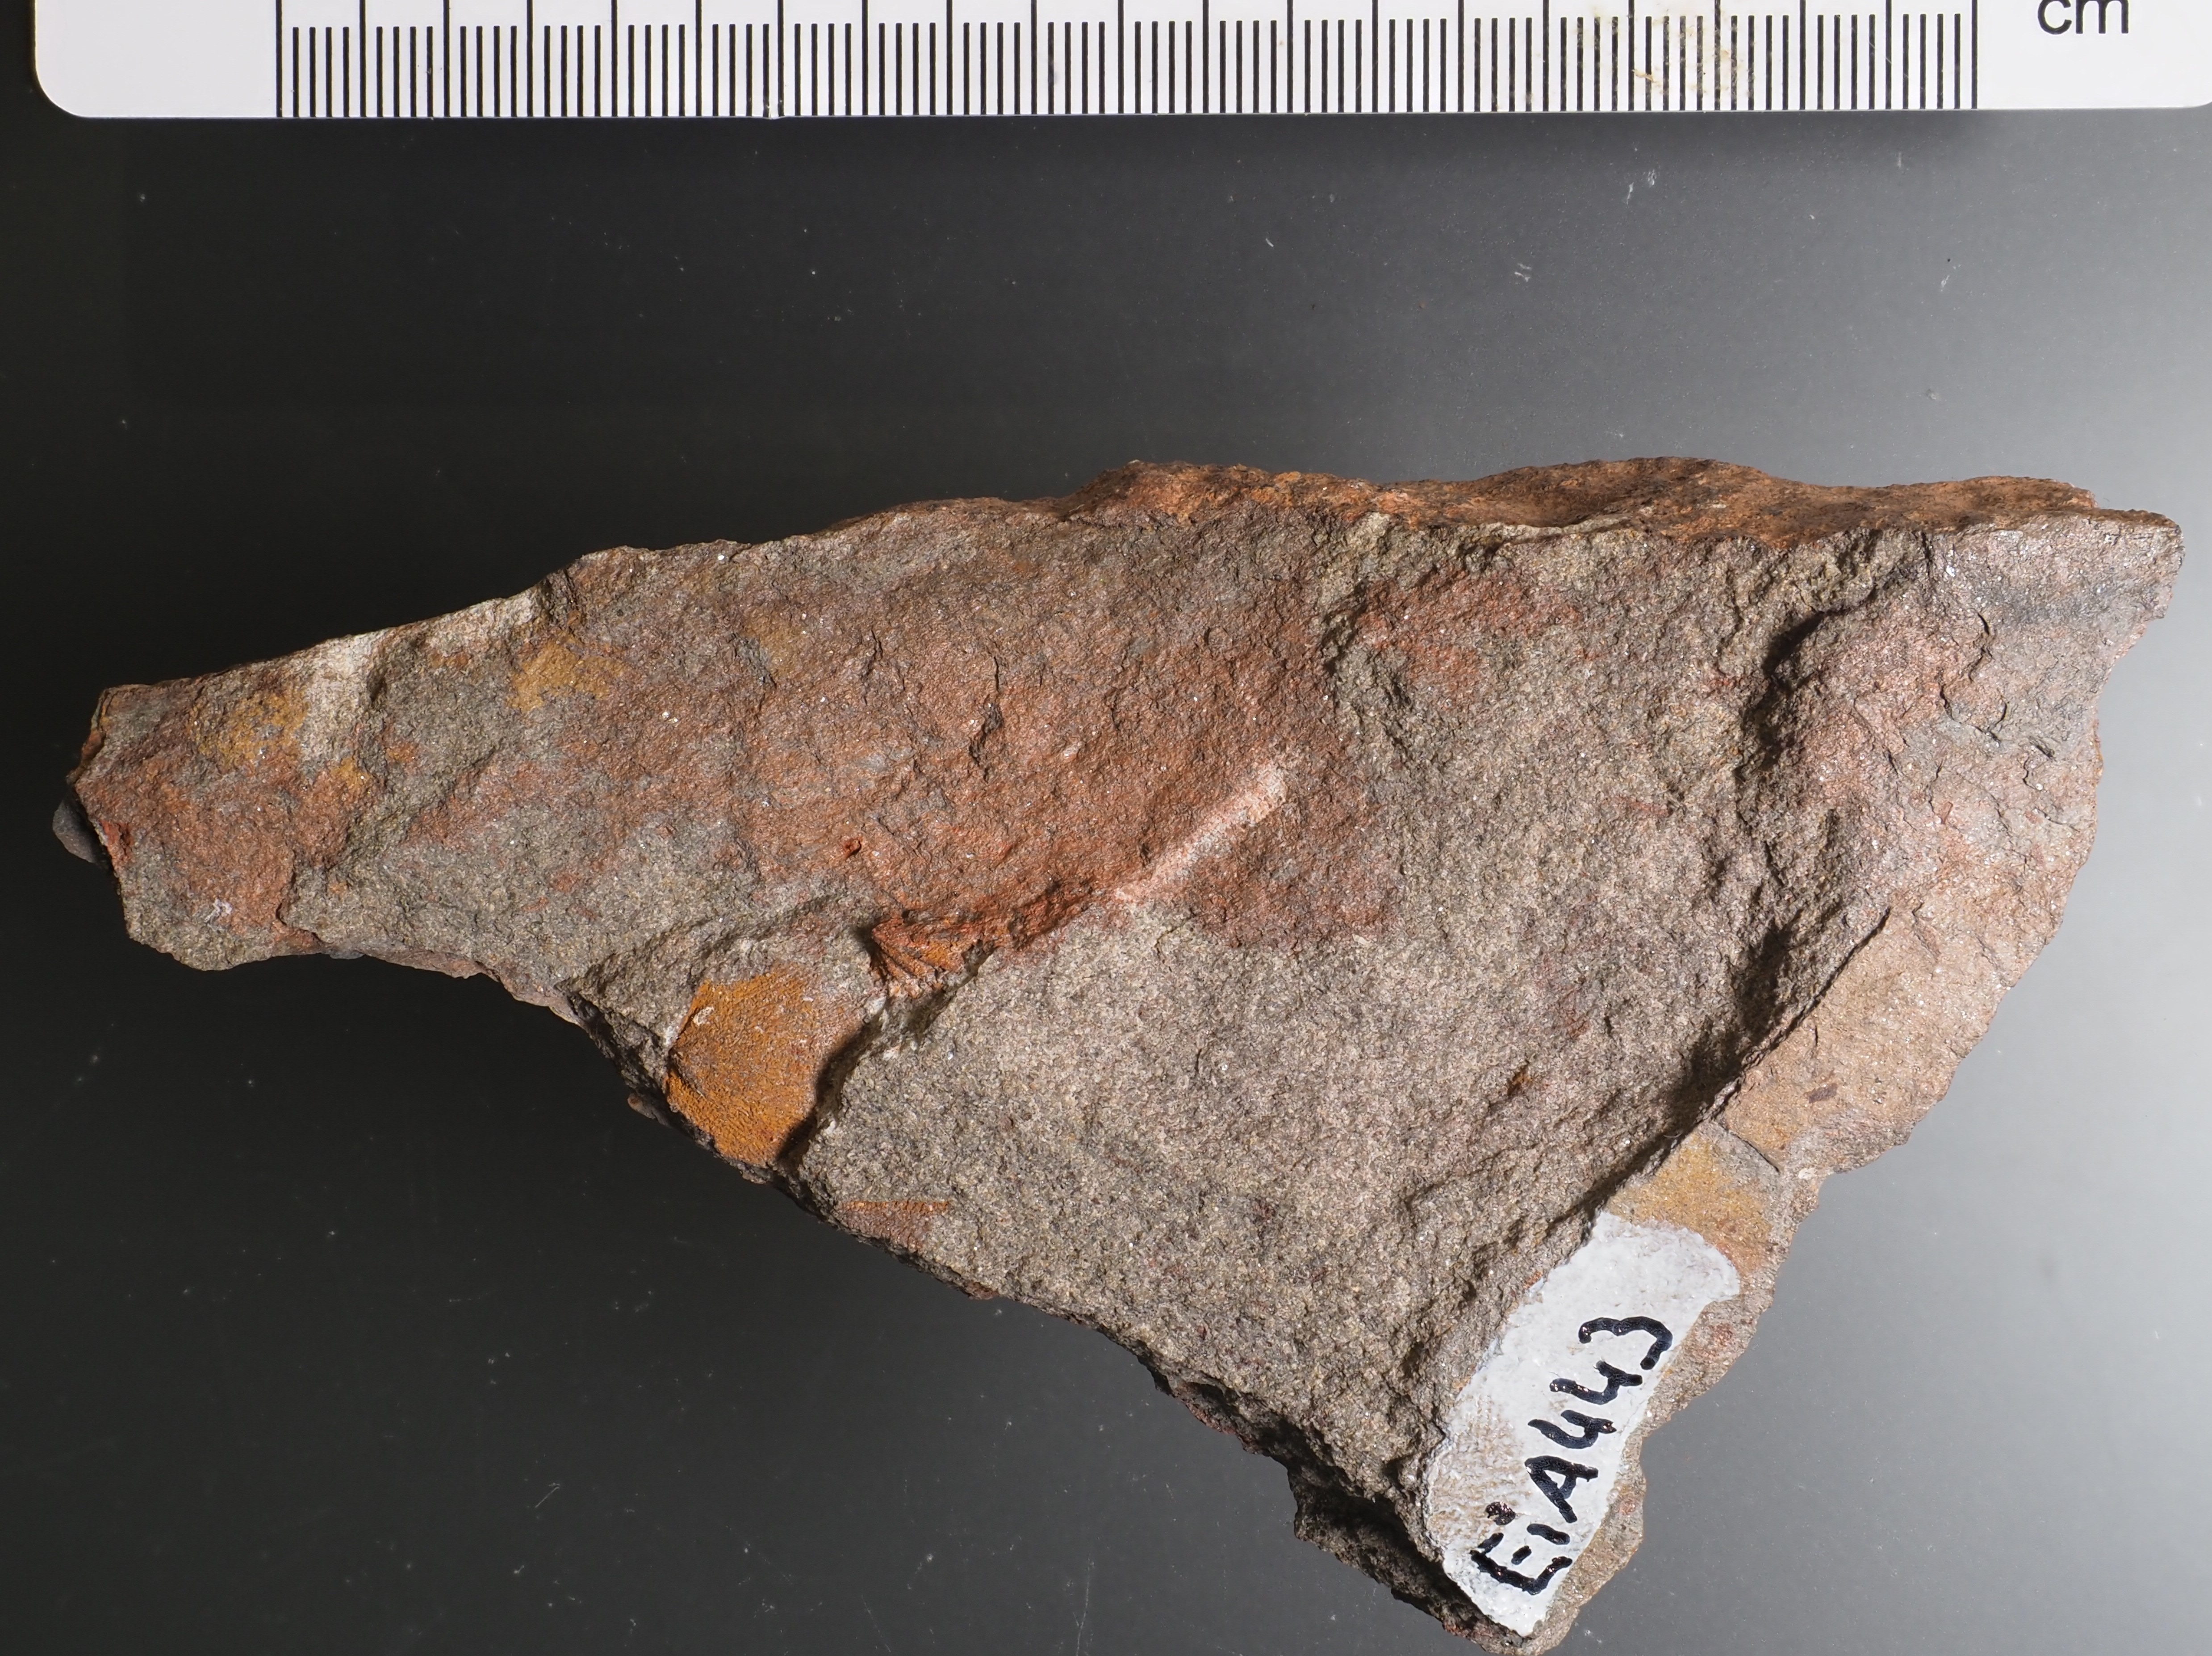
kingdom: Animalia
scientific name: Animalia
